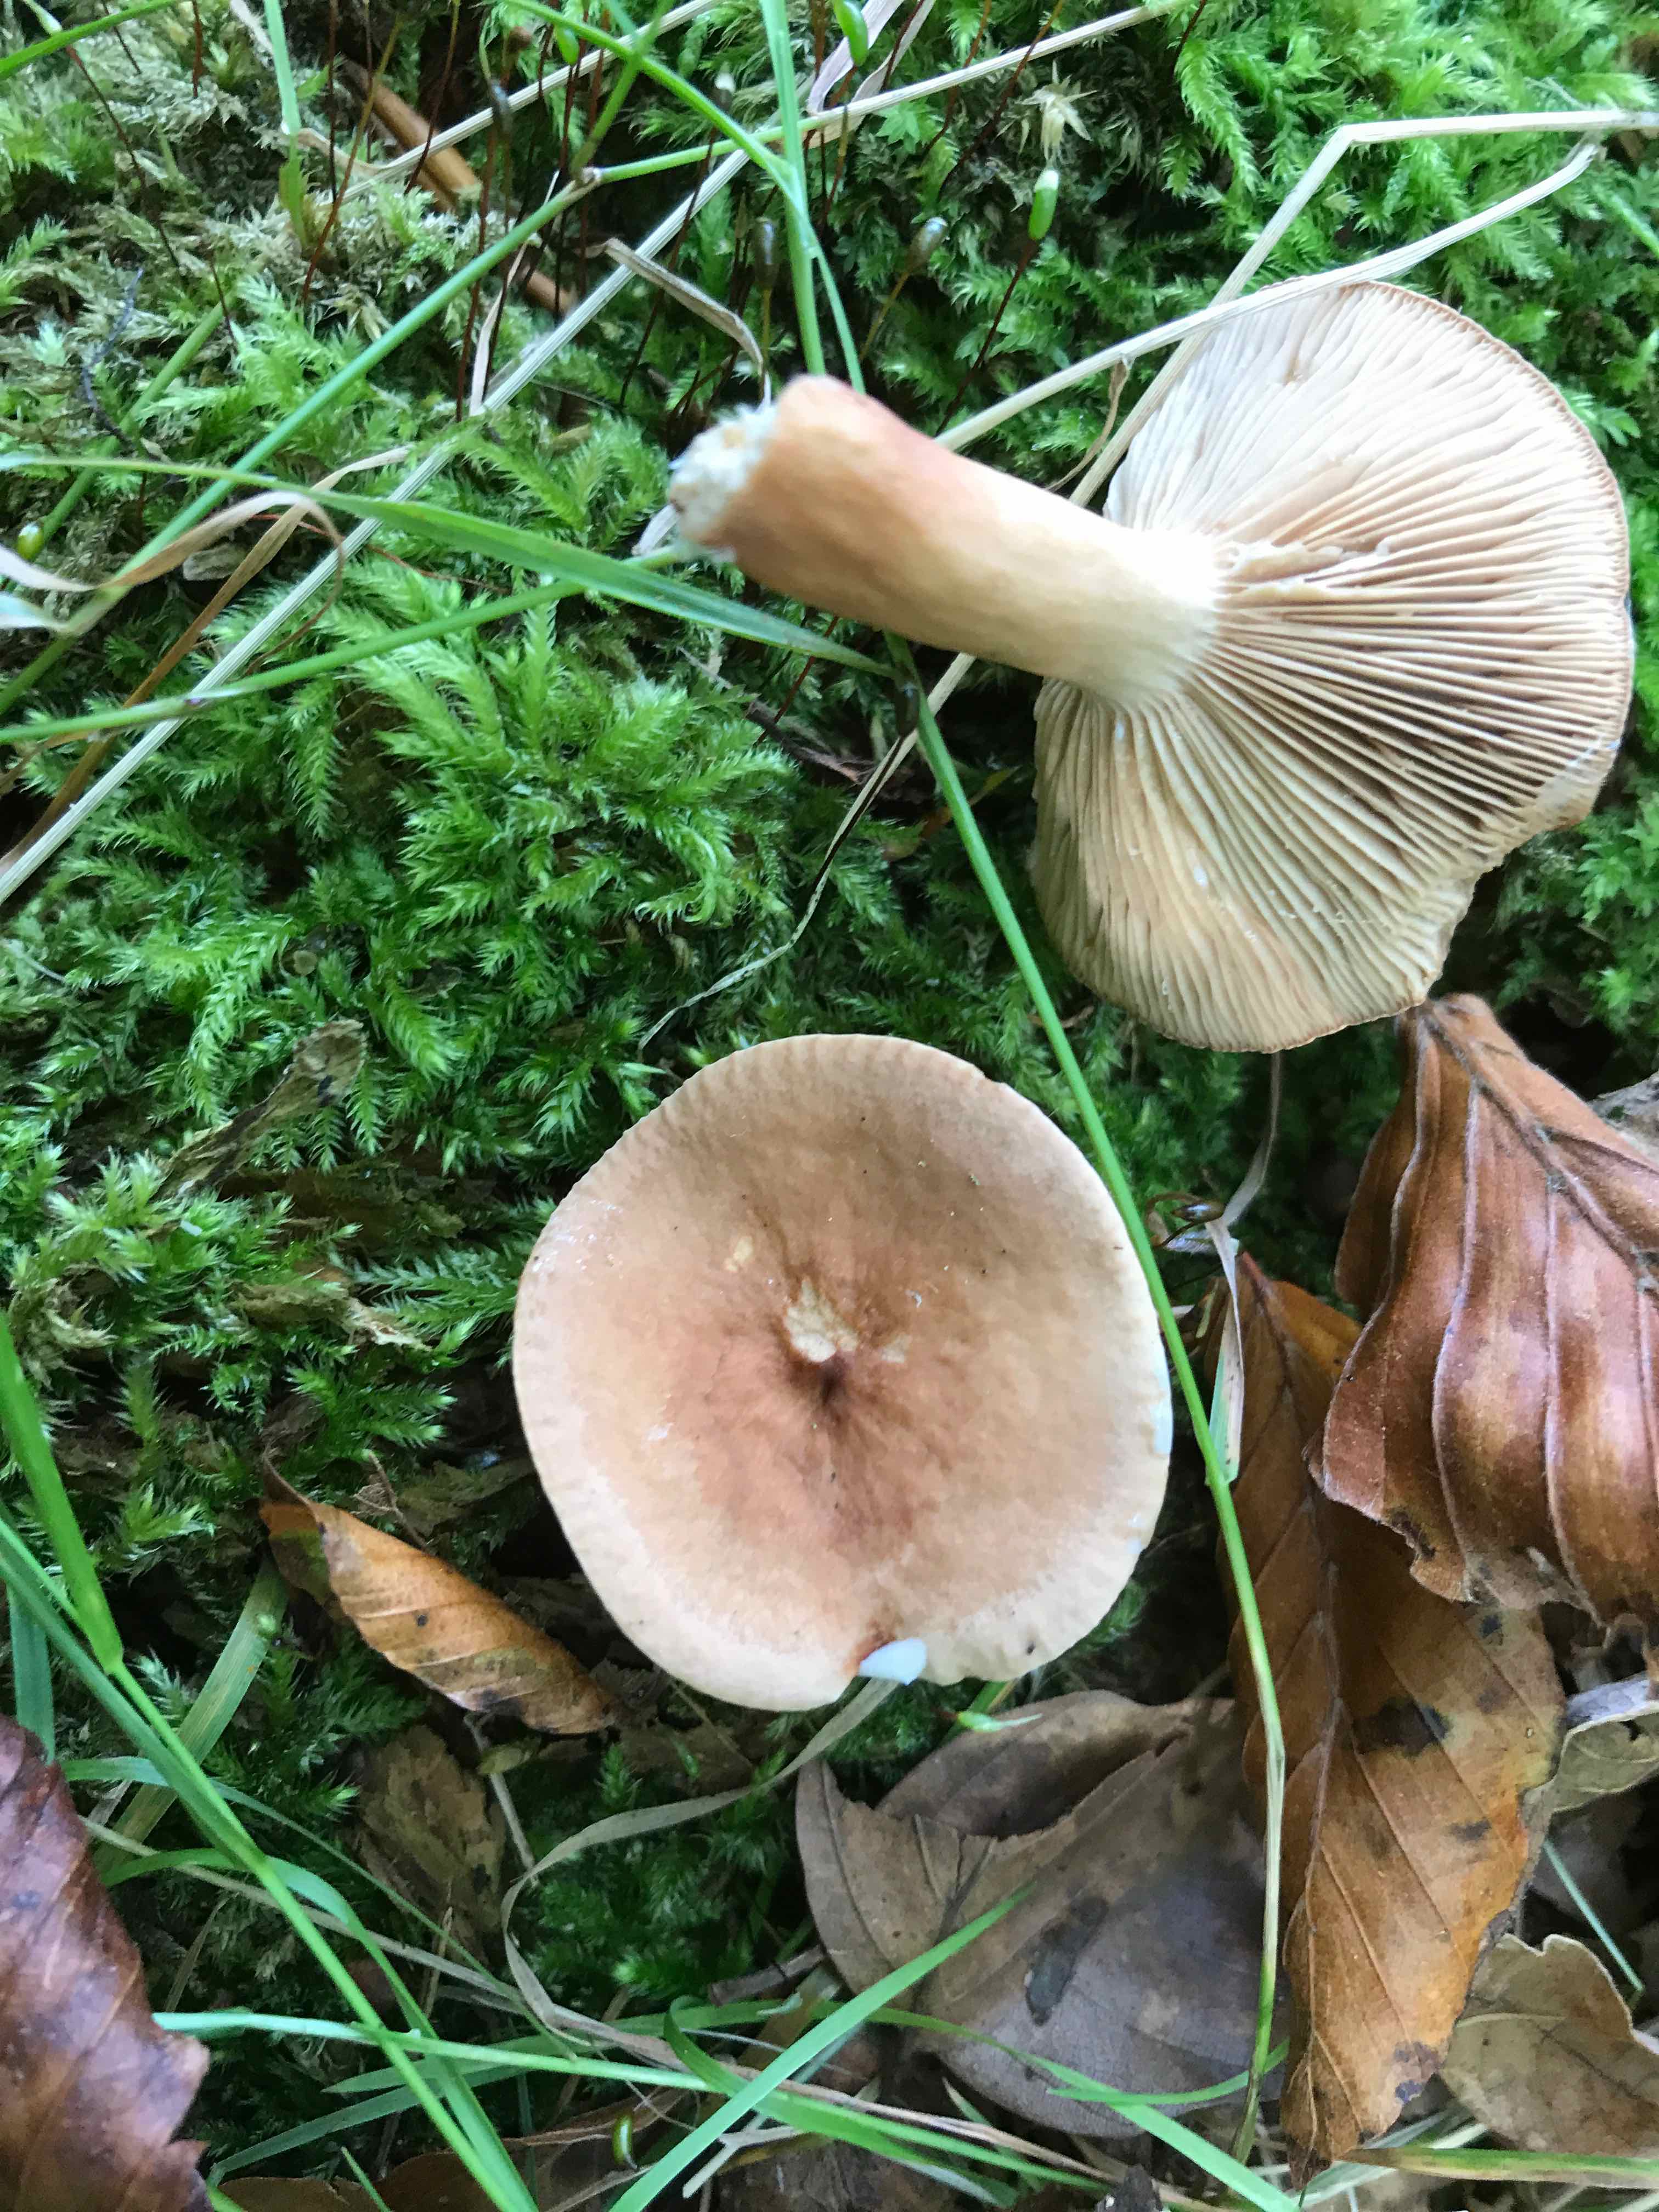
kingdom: Fungi
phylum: Basidiomycota
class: Agaricomycetes
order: Russulales
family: Russulaceae
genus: Lactarius
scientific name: Lactarius subdulcis
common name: sødlig mælkehat
